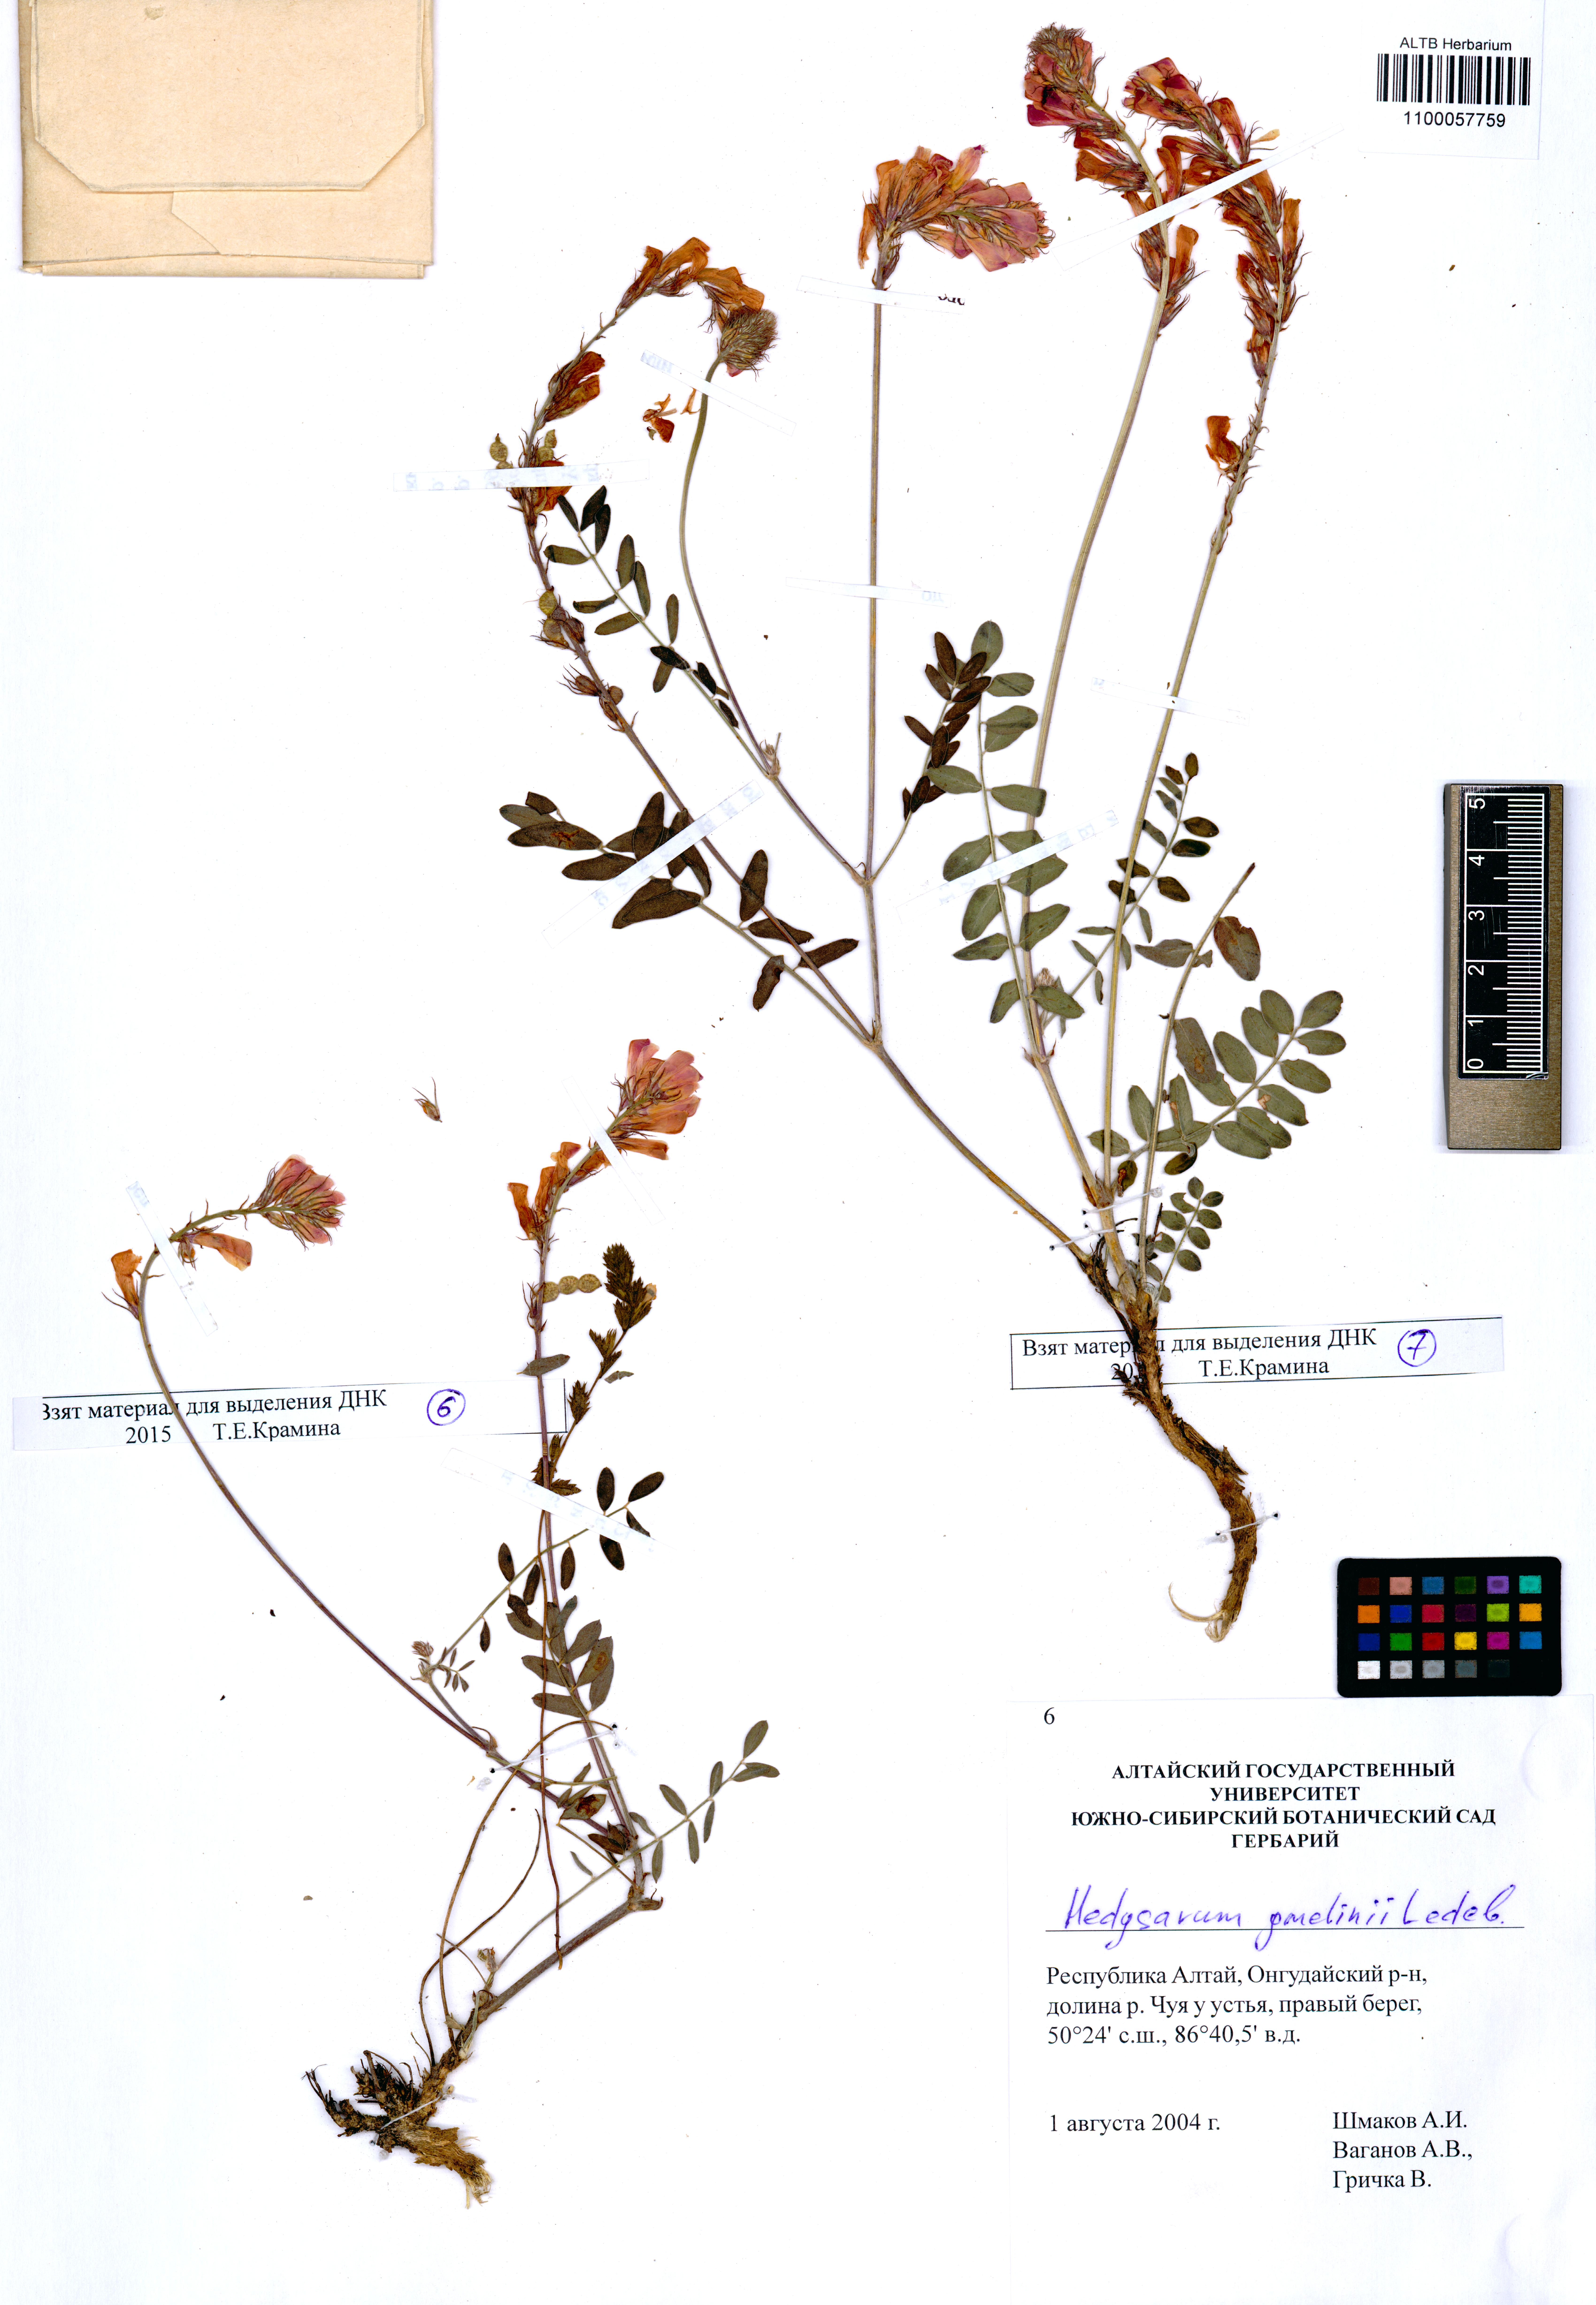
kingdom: Plantae
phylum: Tracheophyta
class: Magnoliopsida
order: Fabales
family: Fabaceae
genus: Hedysarum
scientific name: Hedysarum gmelinii
